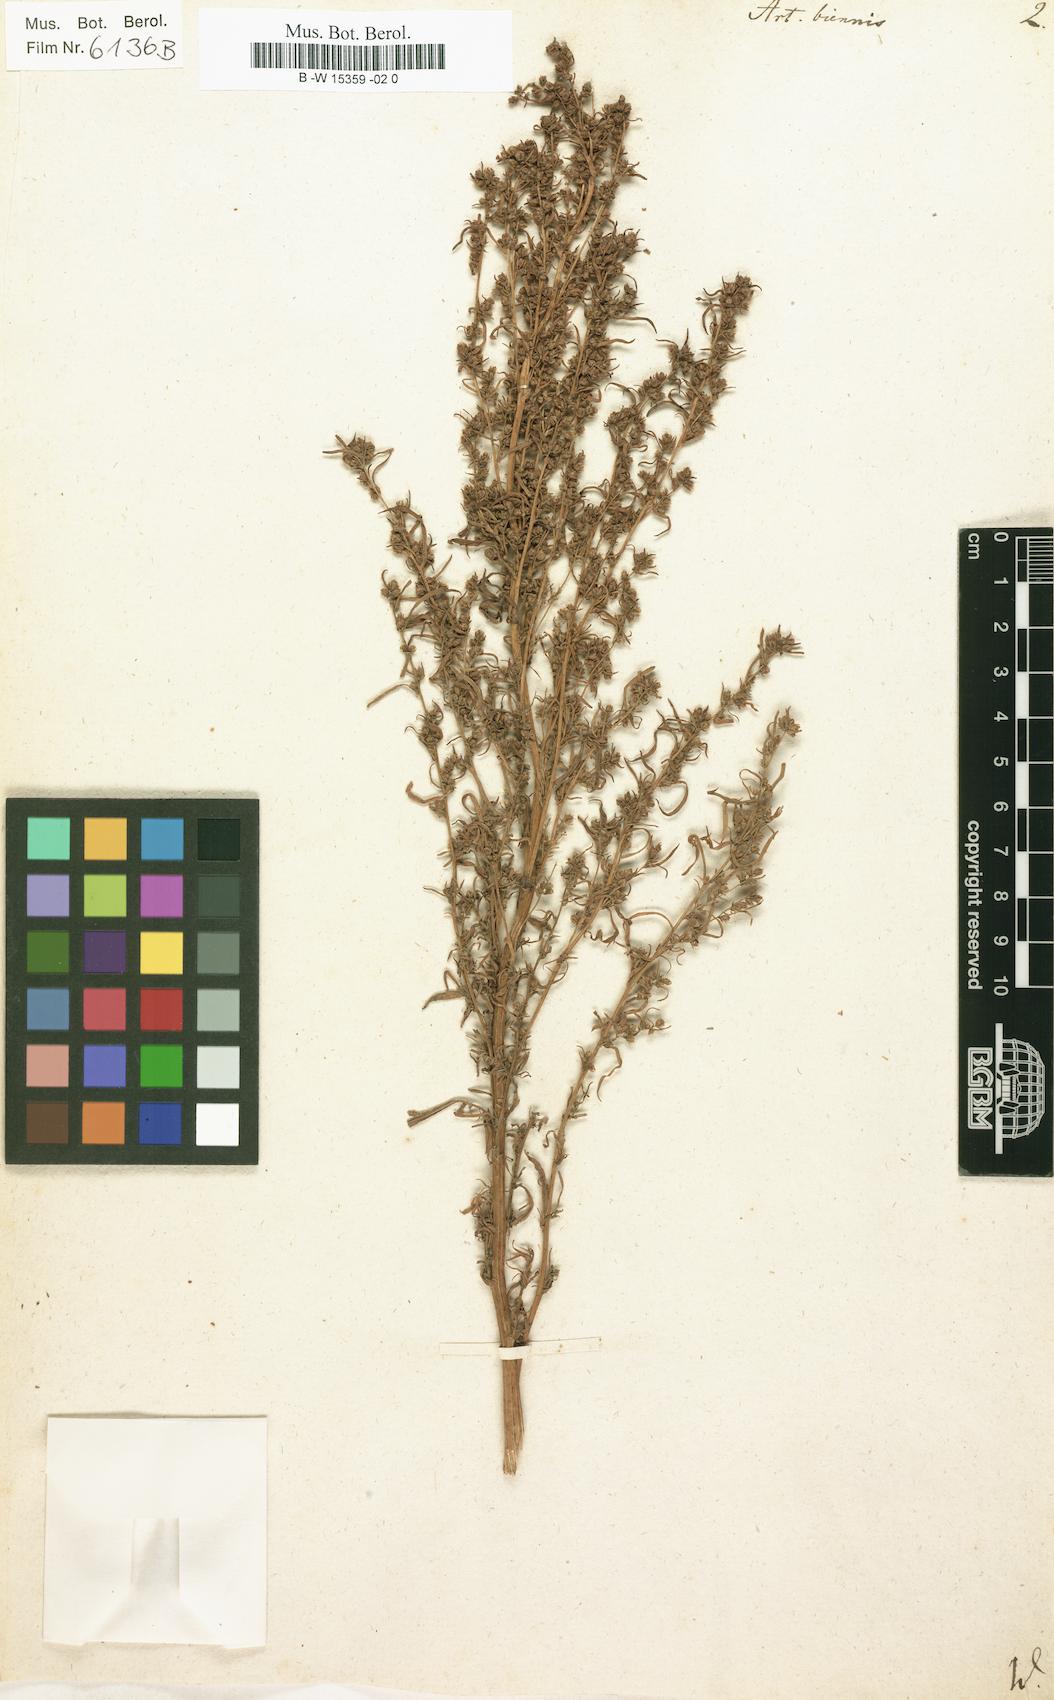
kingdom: Plantae
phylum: Tracheophyta
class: Magnoliopsida
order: Asterales
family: Asteraceae
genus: Artemisia
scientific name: Artemisia biennis
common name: Biennial wormwood
